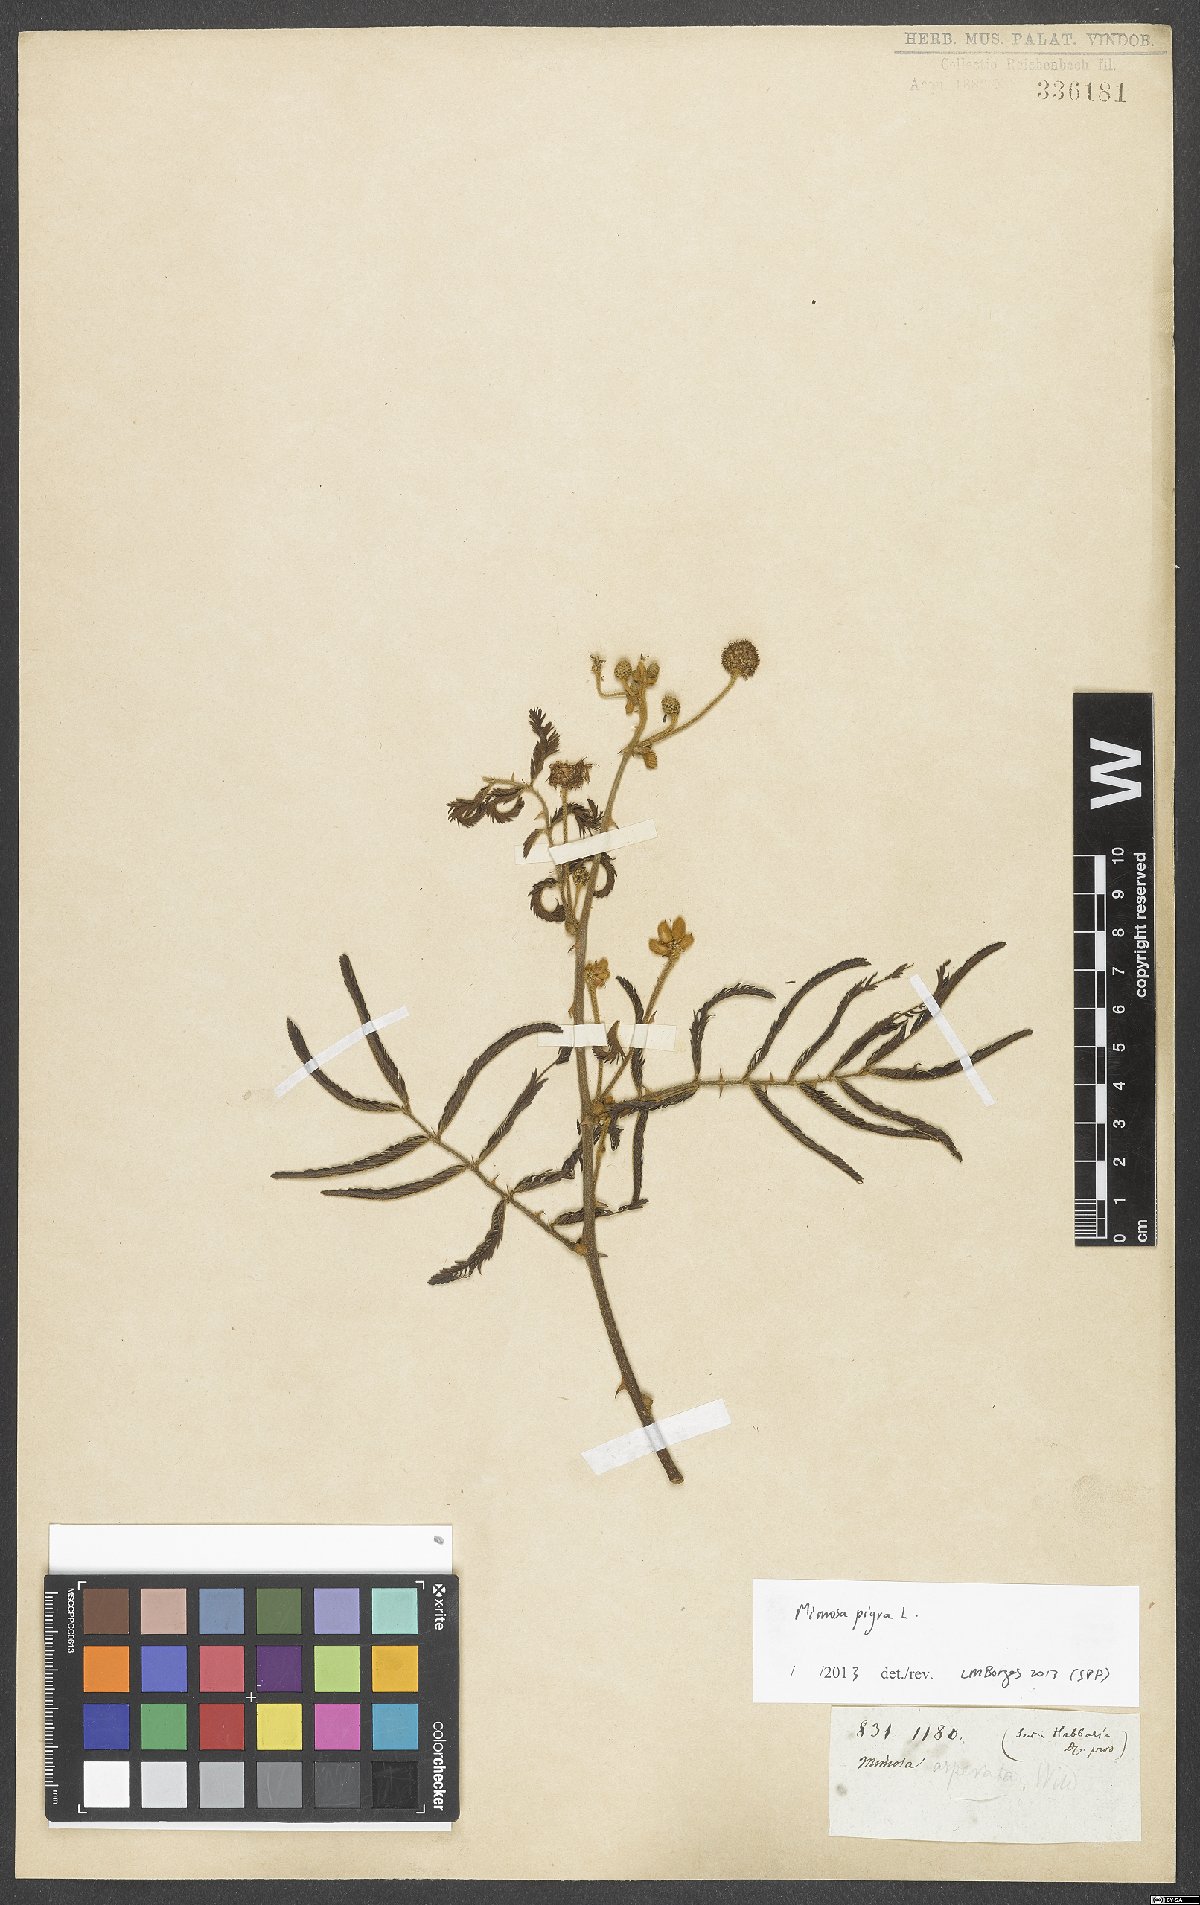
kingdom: Plantae
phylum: Tracheophyta
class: Magnoliopsida
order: Fabales
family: Fabaceae
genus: Mimosa
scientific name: Mimosa pigra
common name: Black mimosa
